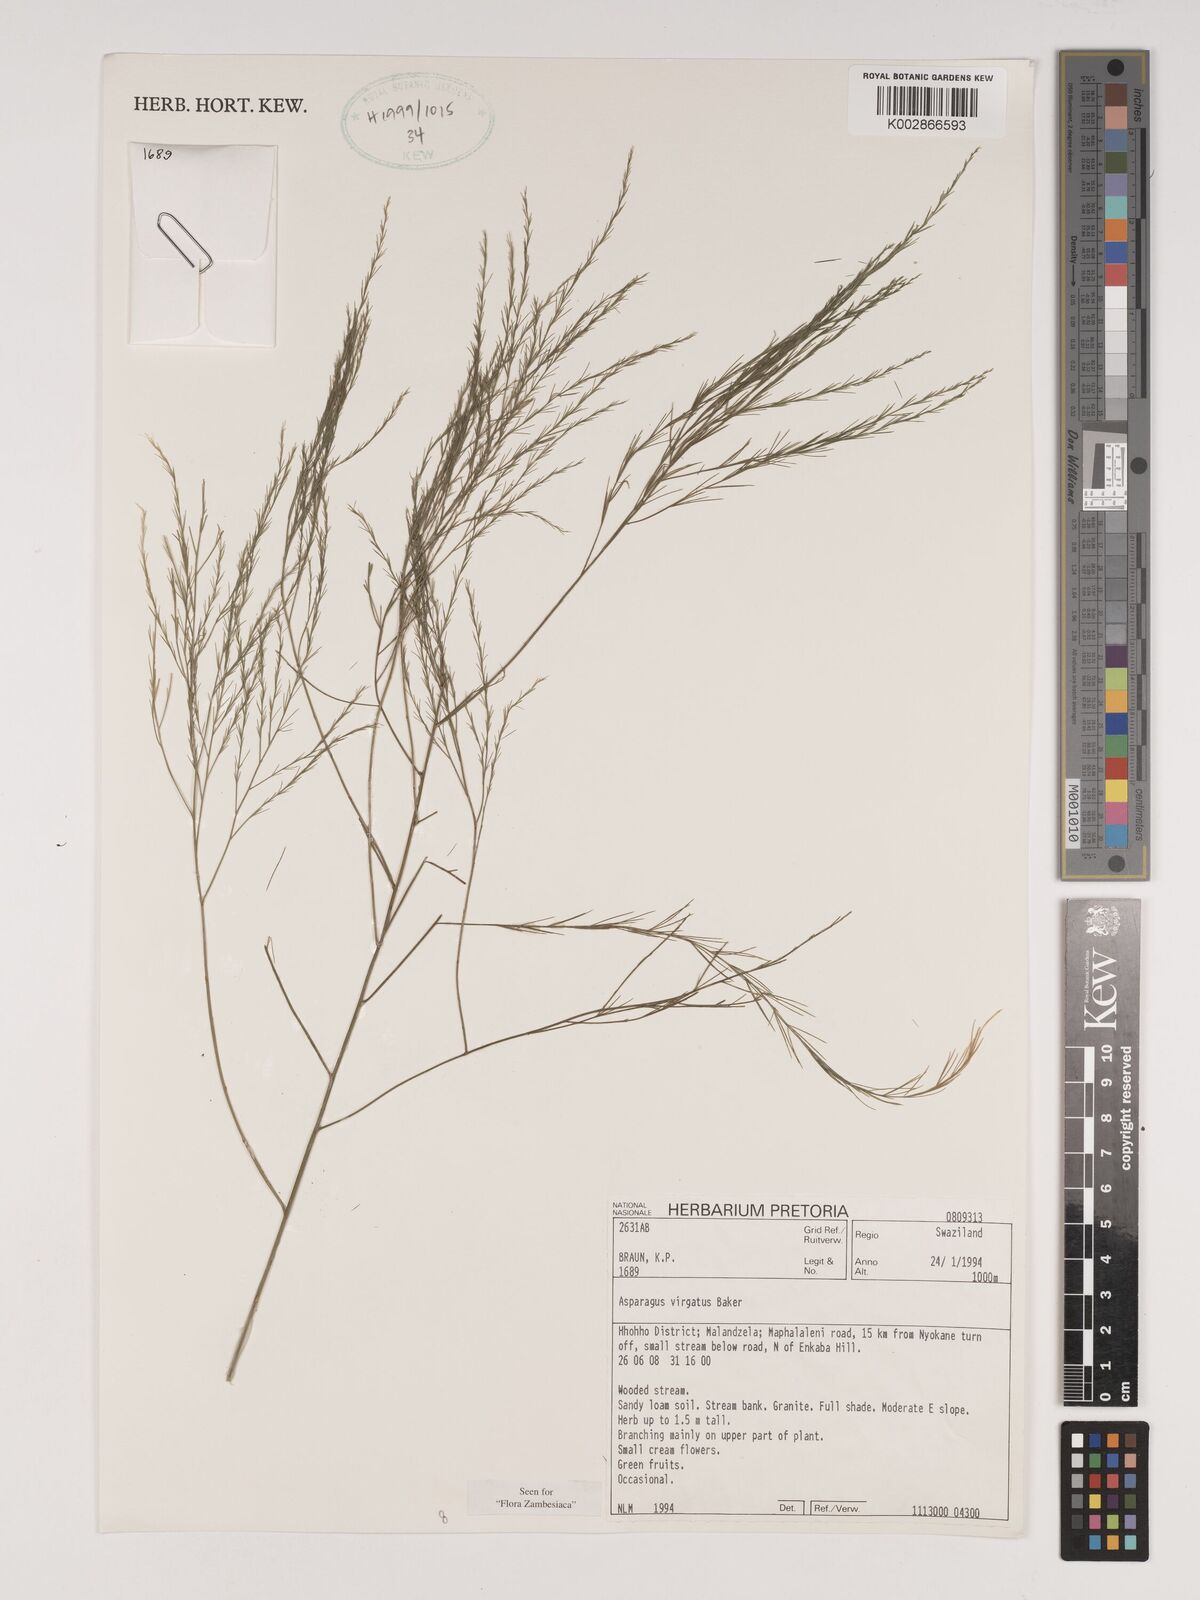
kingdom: Plantae
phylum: Tracheophyta
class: Liliopsida
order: Asparagales
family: Asparagaceae
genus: Asparagus
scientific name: Asparagus virgatus
